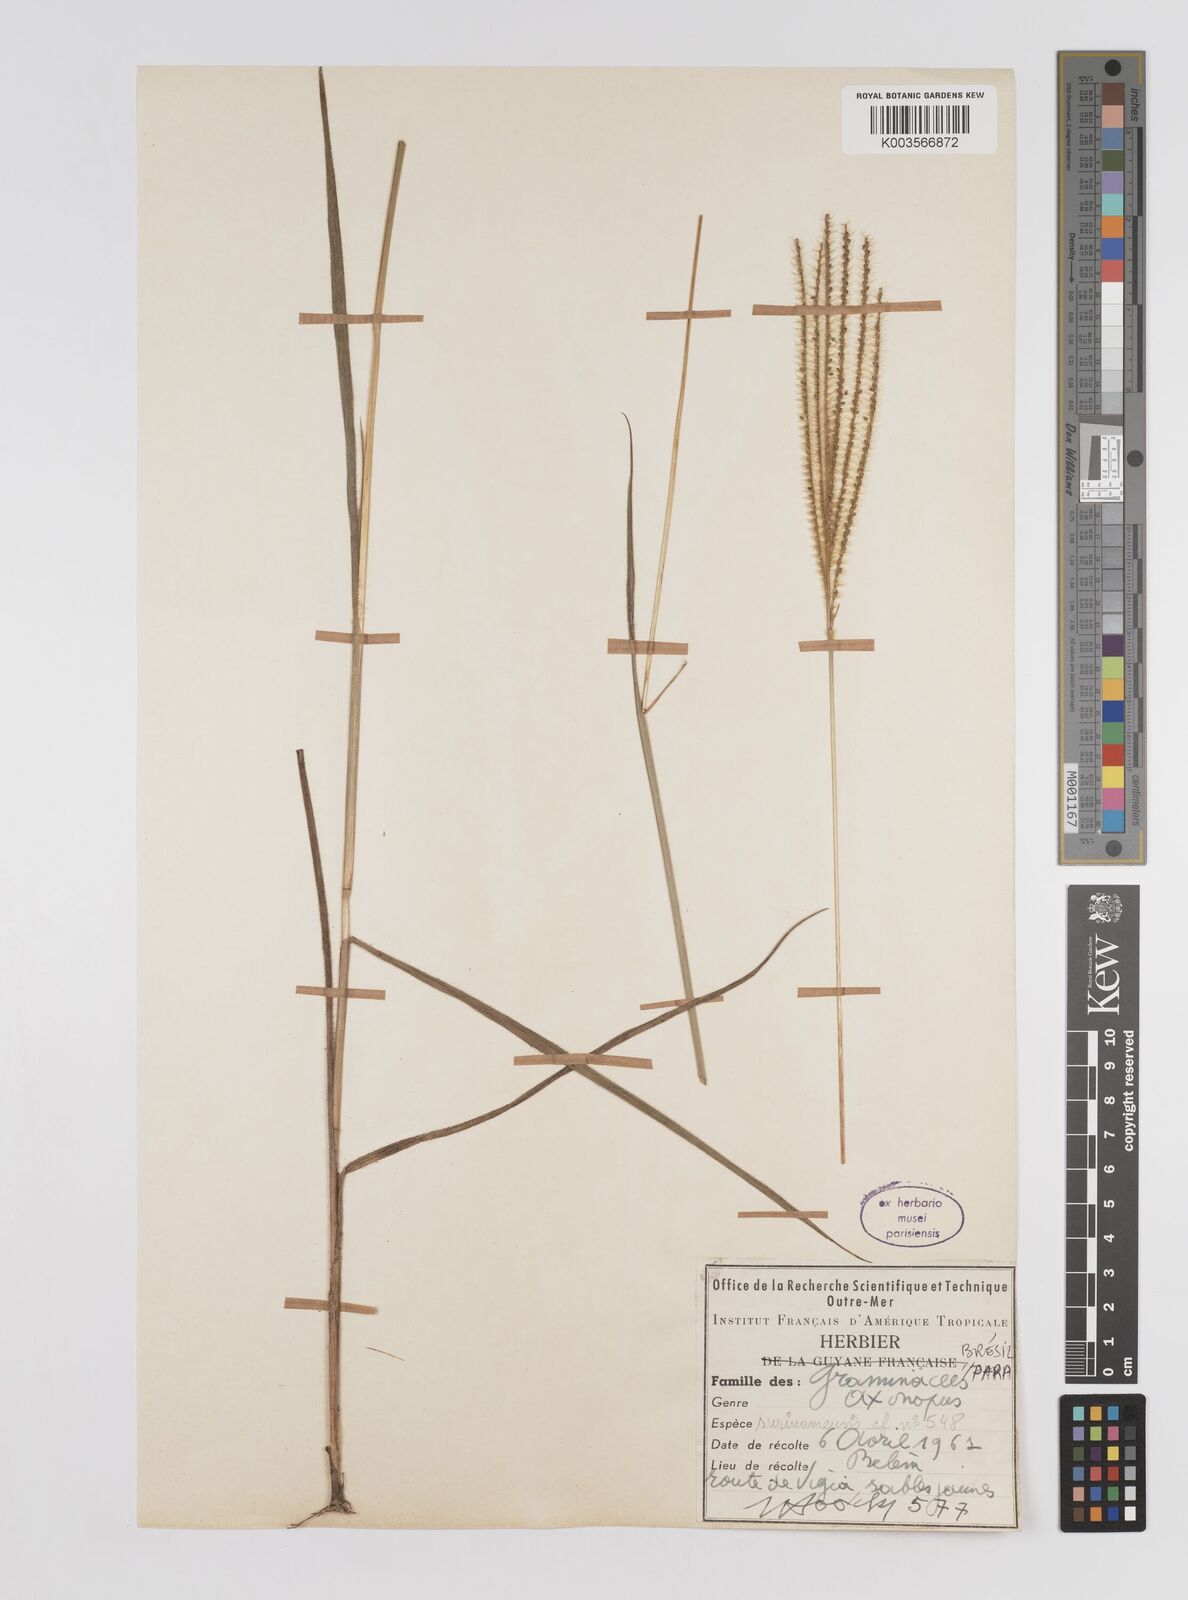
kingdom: Plantae
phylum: Tracheophyta
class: Liliopsida
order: Poales
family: Poaceae
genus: Axonopus
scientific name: Axonopus aureus
